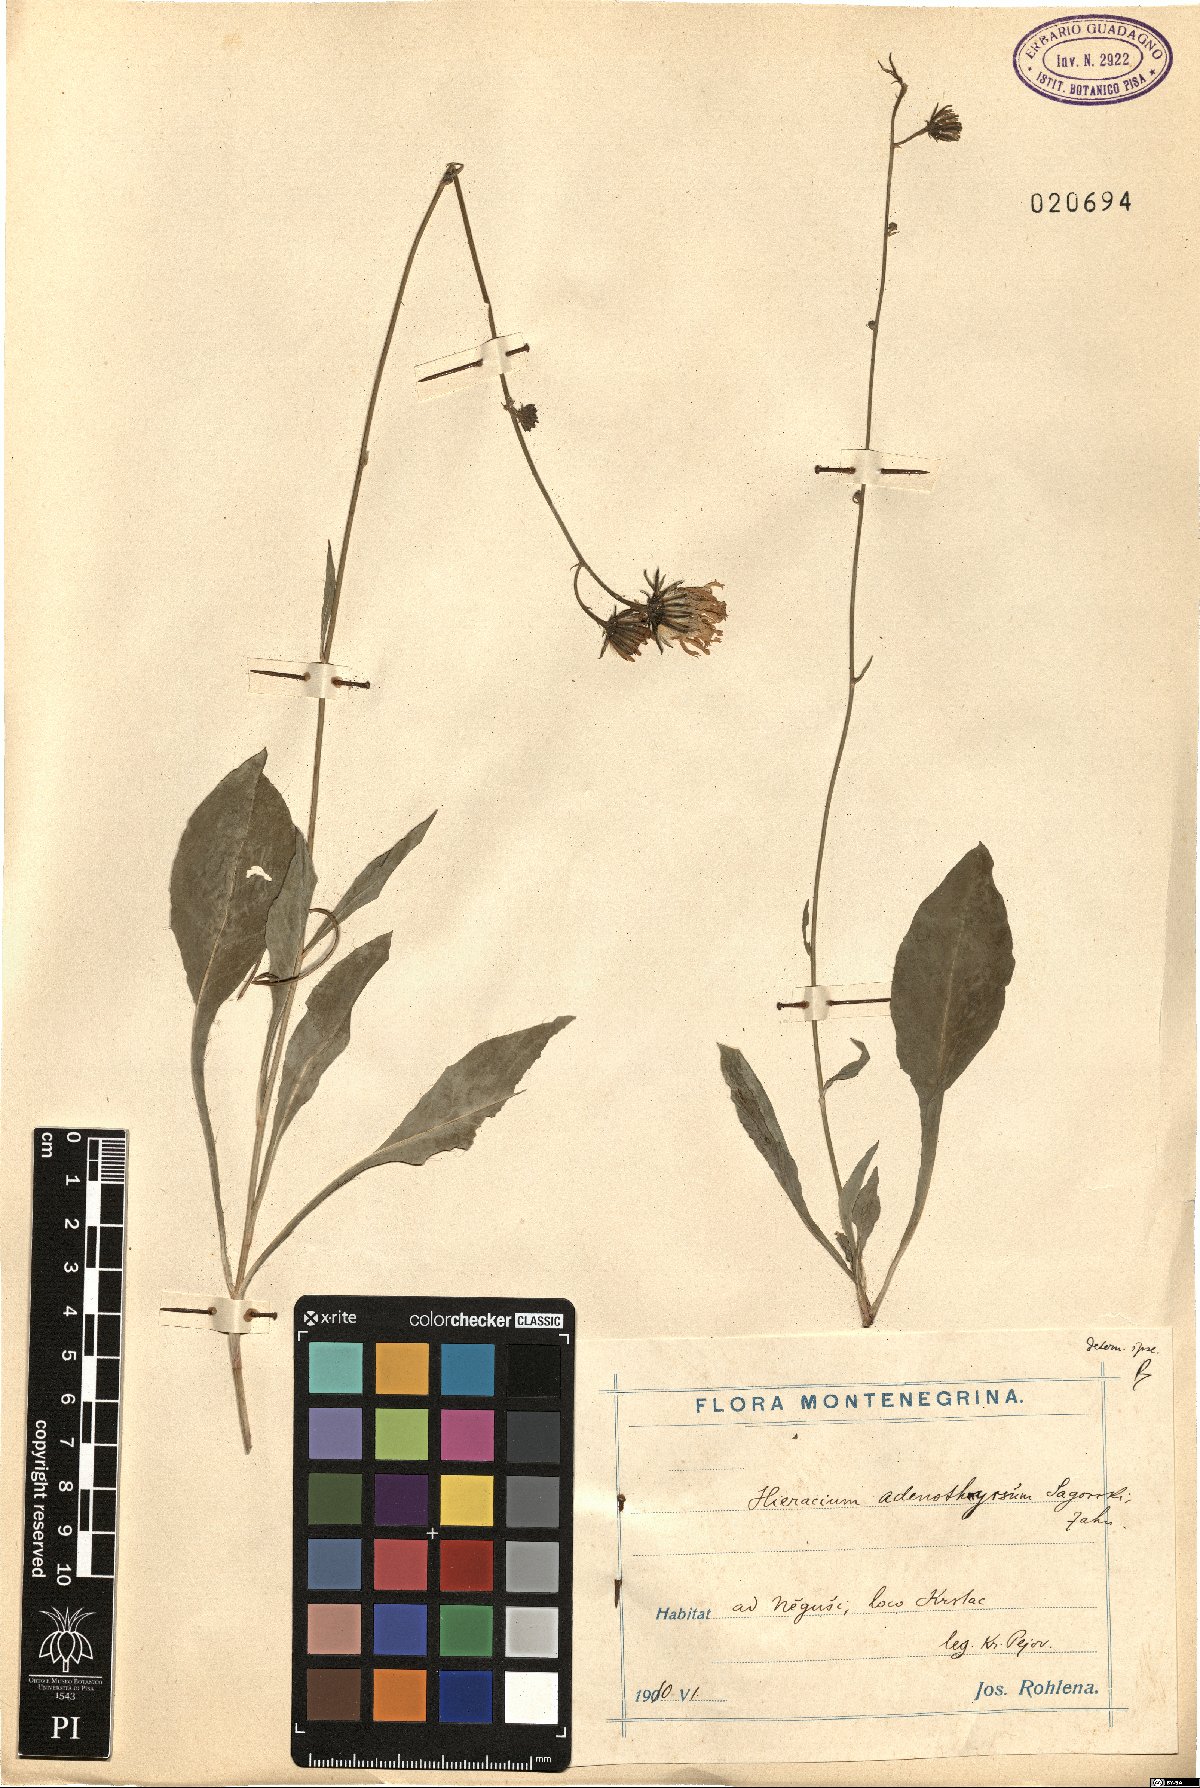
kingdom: Plantae
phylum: Tracheophyta
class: Magnoliopsida
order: Asterales
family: Asteraceae
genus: Hieracium
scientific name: Hieracium
